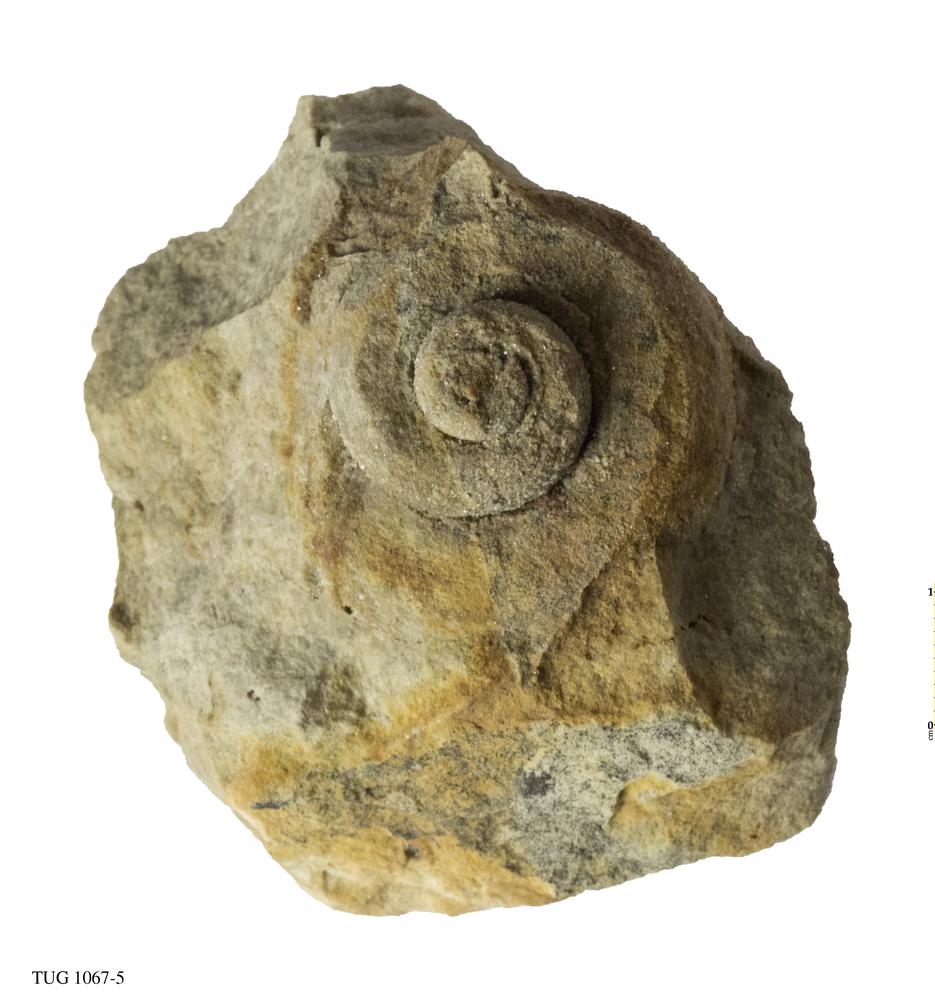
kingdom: Animalia
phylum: Mollusca
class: Gastropoda
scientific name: Gastropoda
